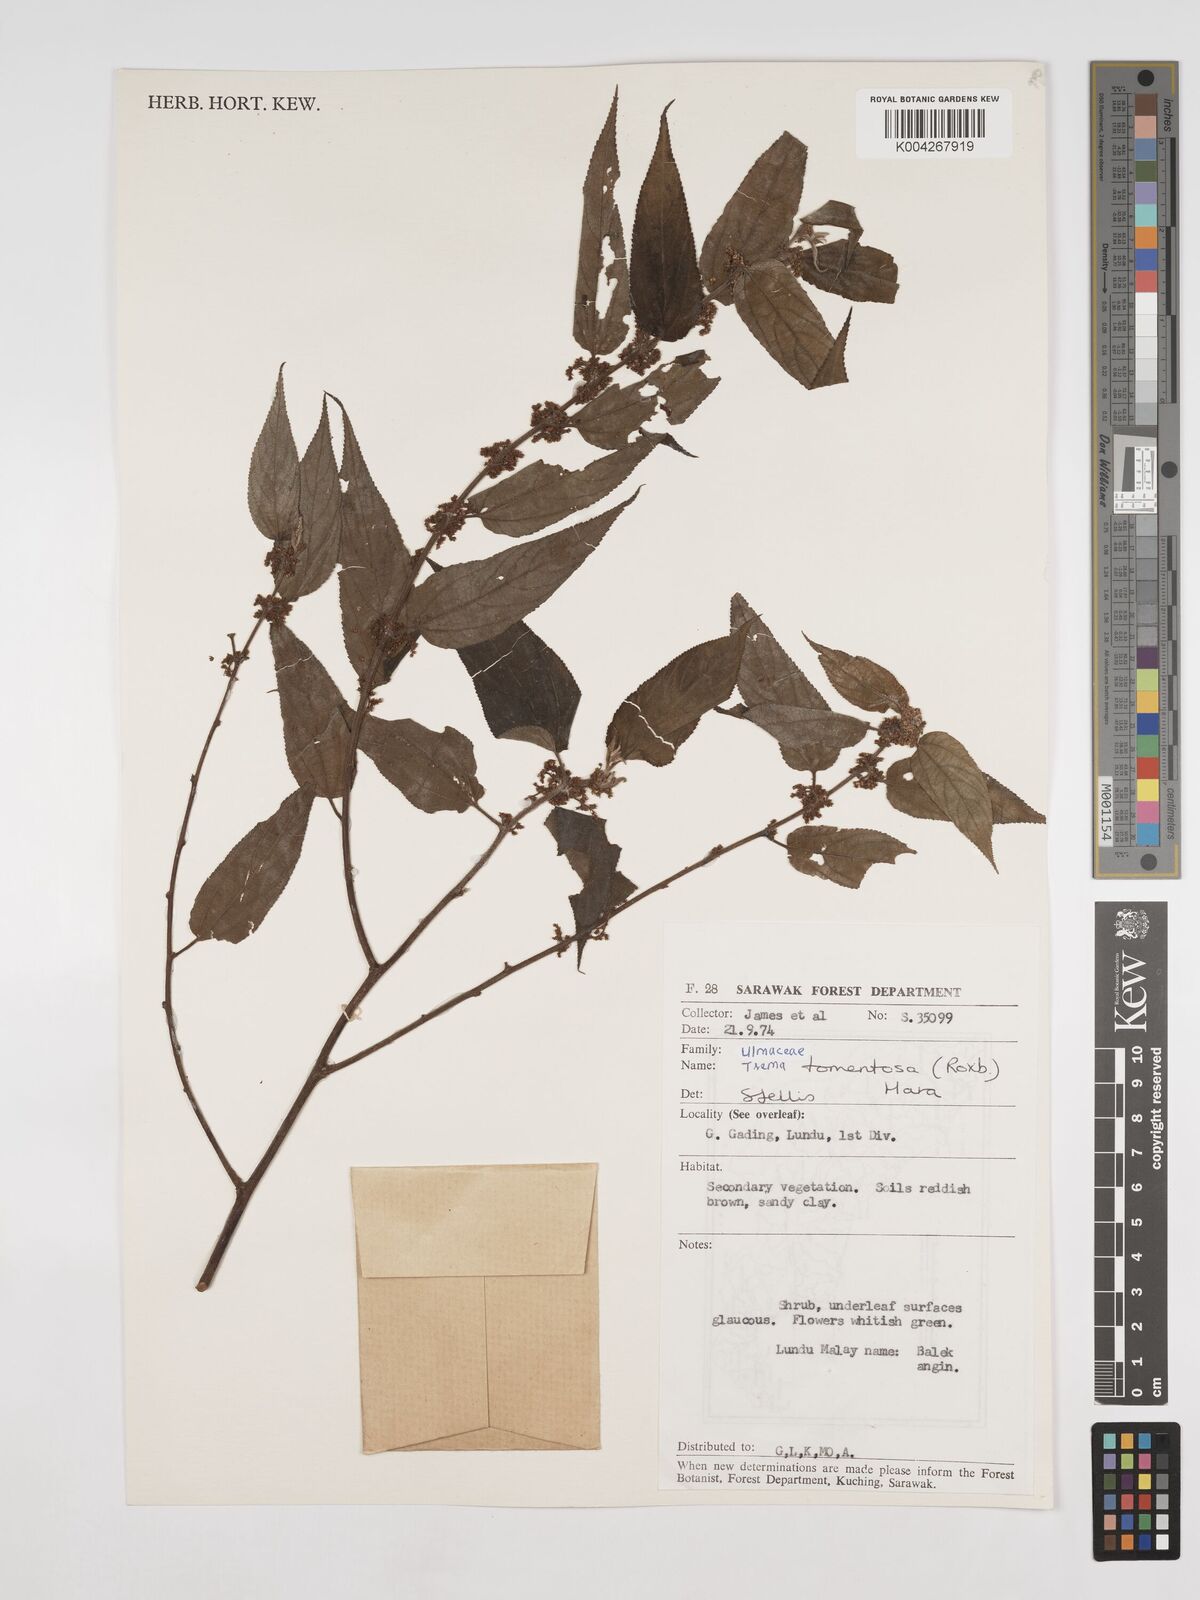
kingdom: Plantae
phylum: Tracheophyta
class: Magnoliopsida
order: Rosales
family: Cannabaceae
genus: Trema
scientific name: Trema tomentosum
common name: Peach-leaf-poisonbush
